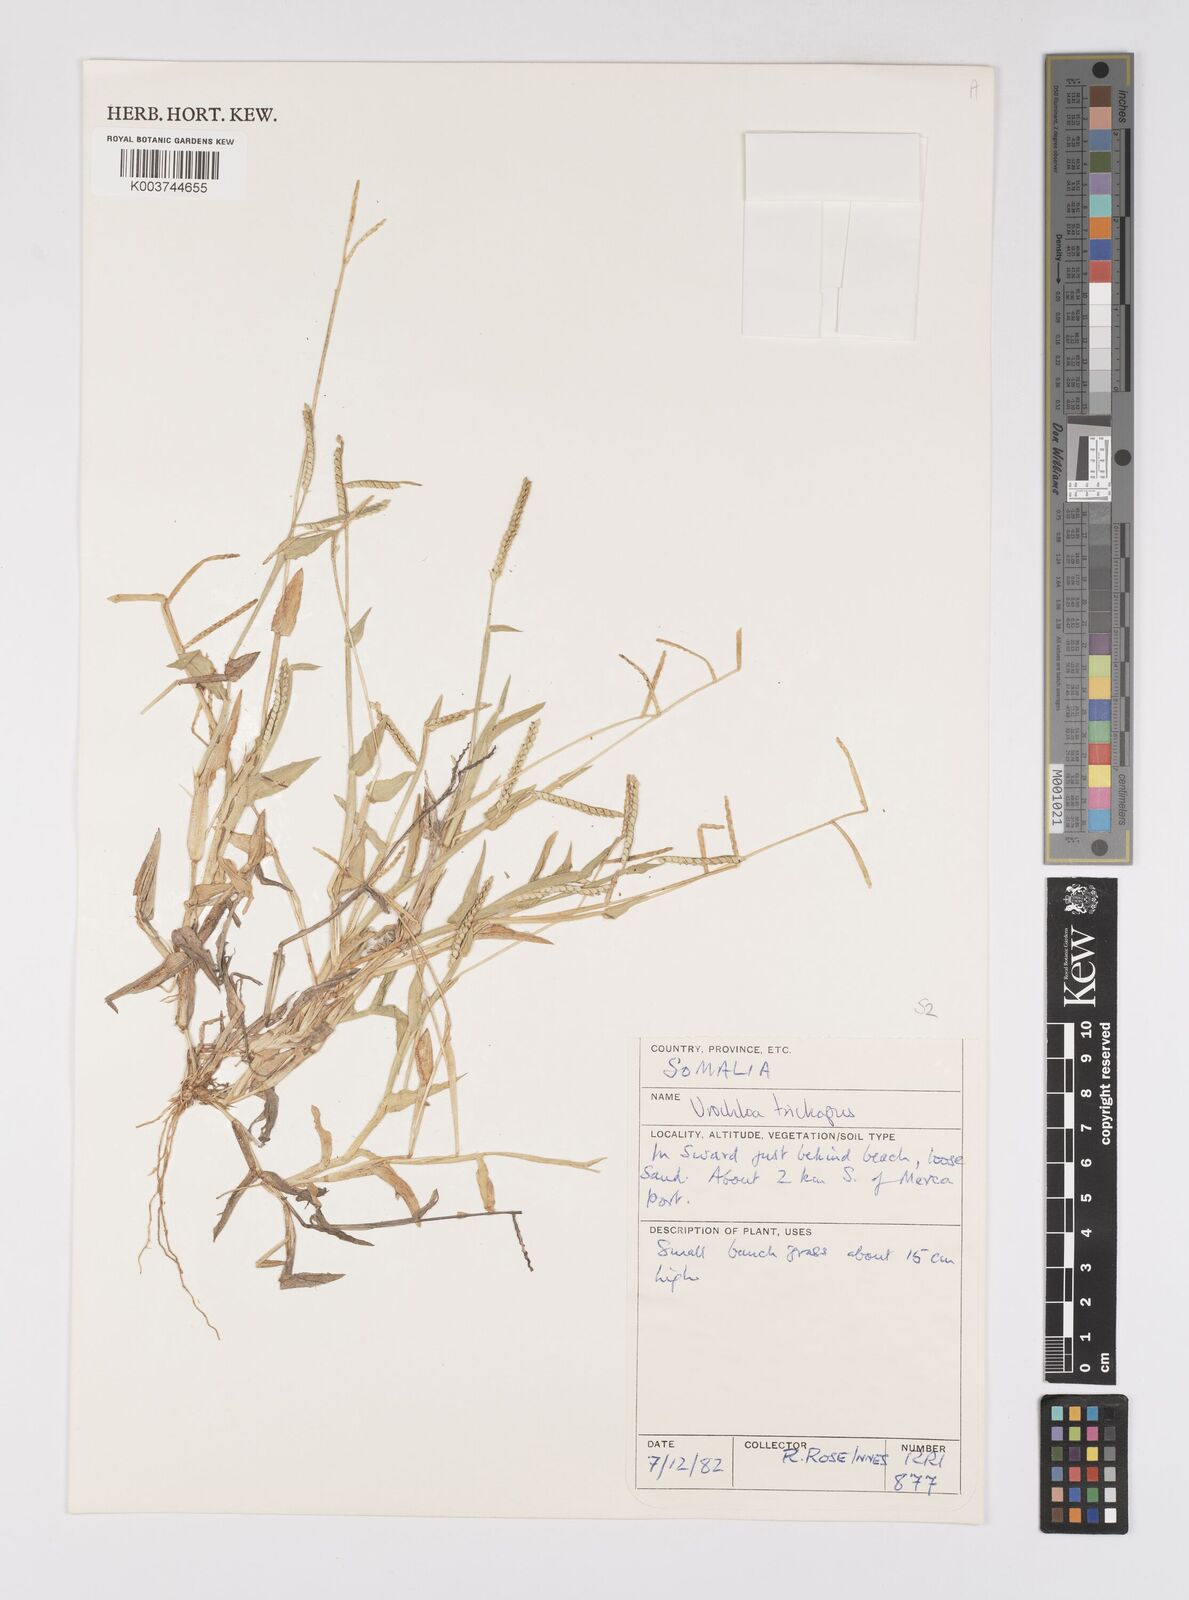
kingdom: Plantae
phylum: Tracheophyta
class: Liliopsida
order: Poales
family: Poaceae
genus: Urochloa
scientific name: Urochloa trichopus
